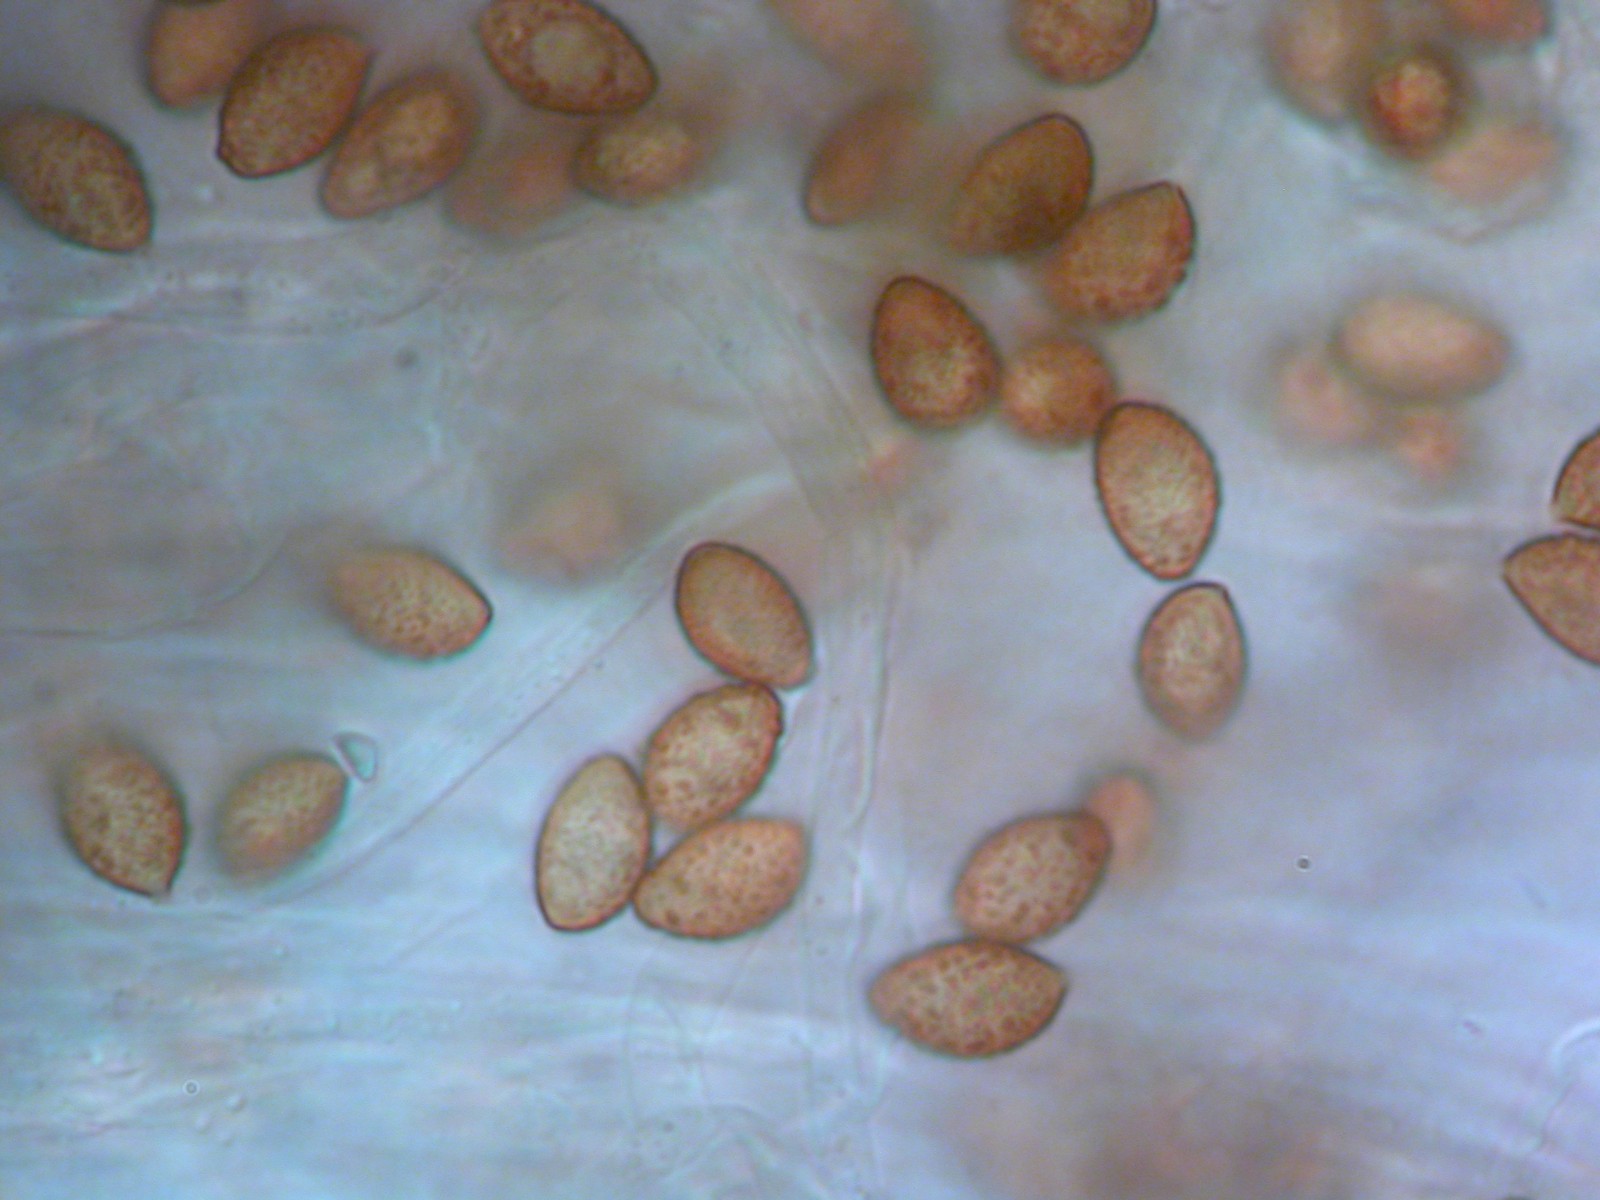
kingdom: Fungi
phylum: Basidiomycota
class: Agaricomycetes
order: Agaricales
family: Cortinariaceae
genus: Cortinarius
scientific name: Cortinarius varius
